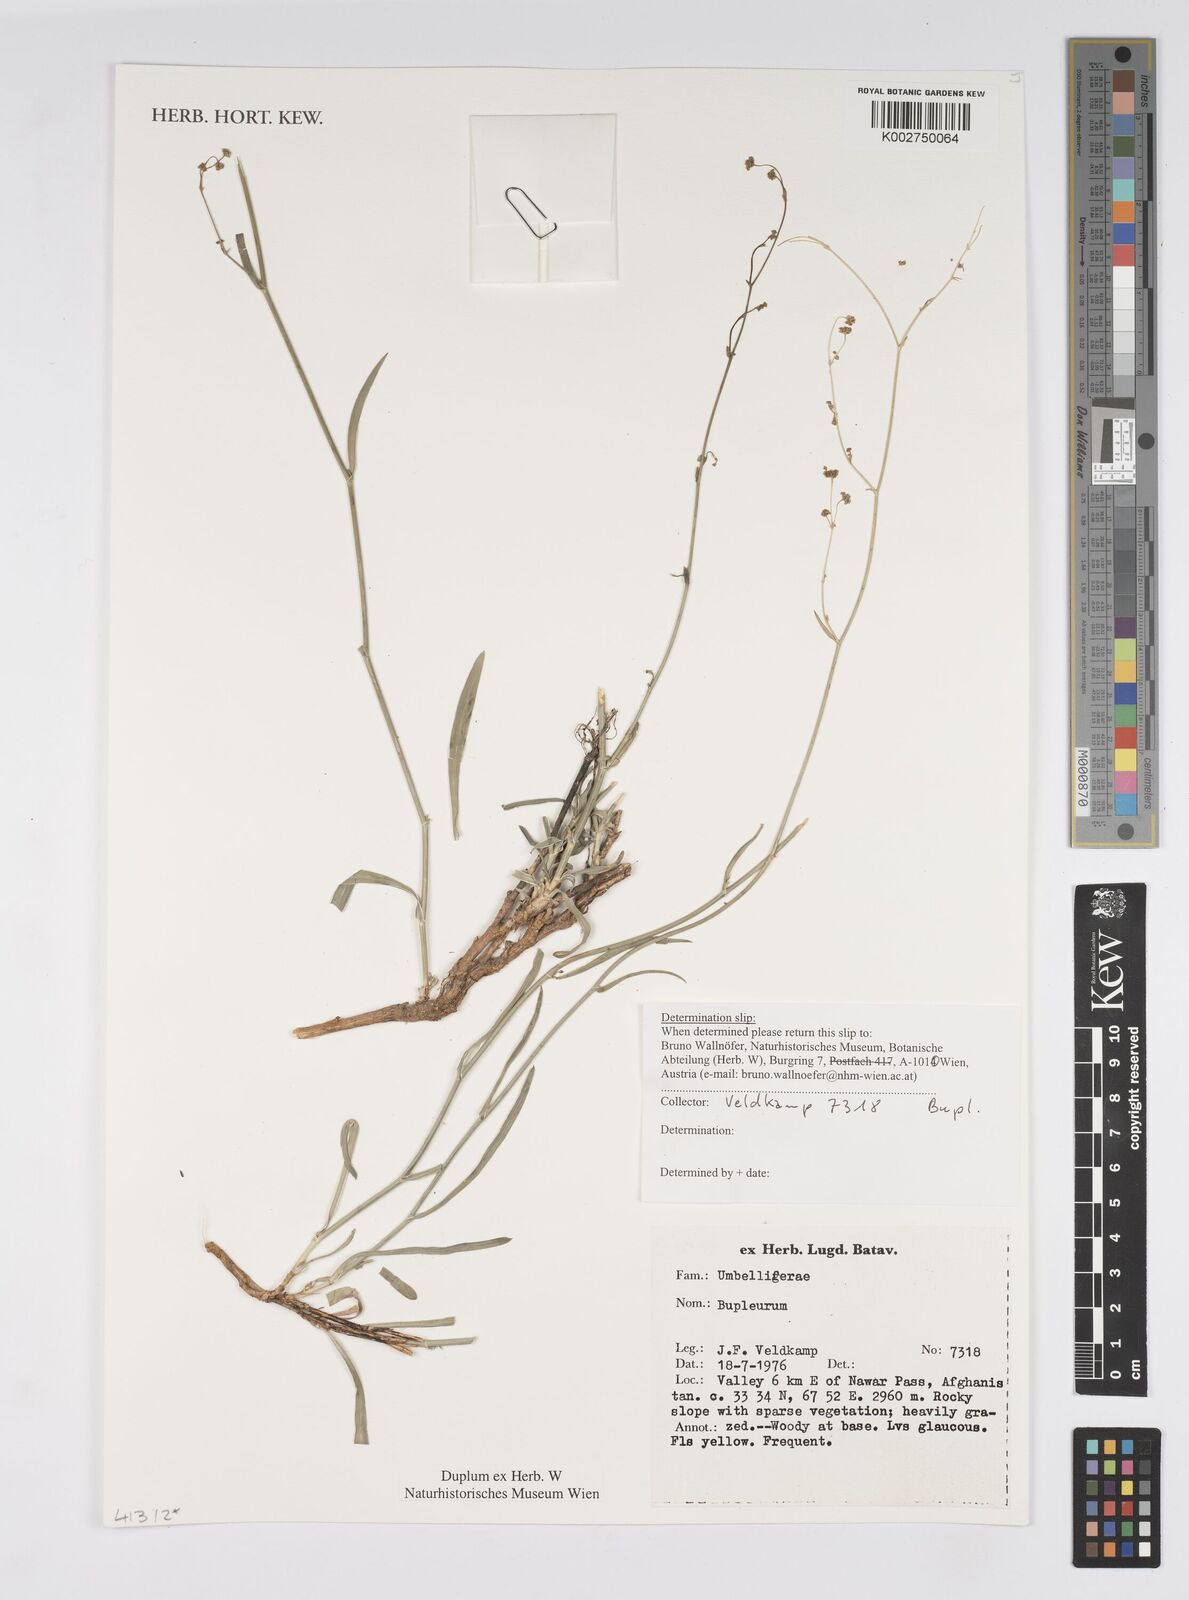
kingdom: Plantae
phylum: Tracheophyta
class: Magnoliopsida
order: Apiales
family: Apiaceae
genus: Bupleurum
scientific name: Bupleurum alatum
